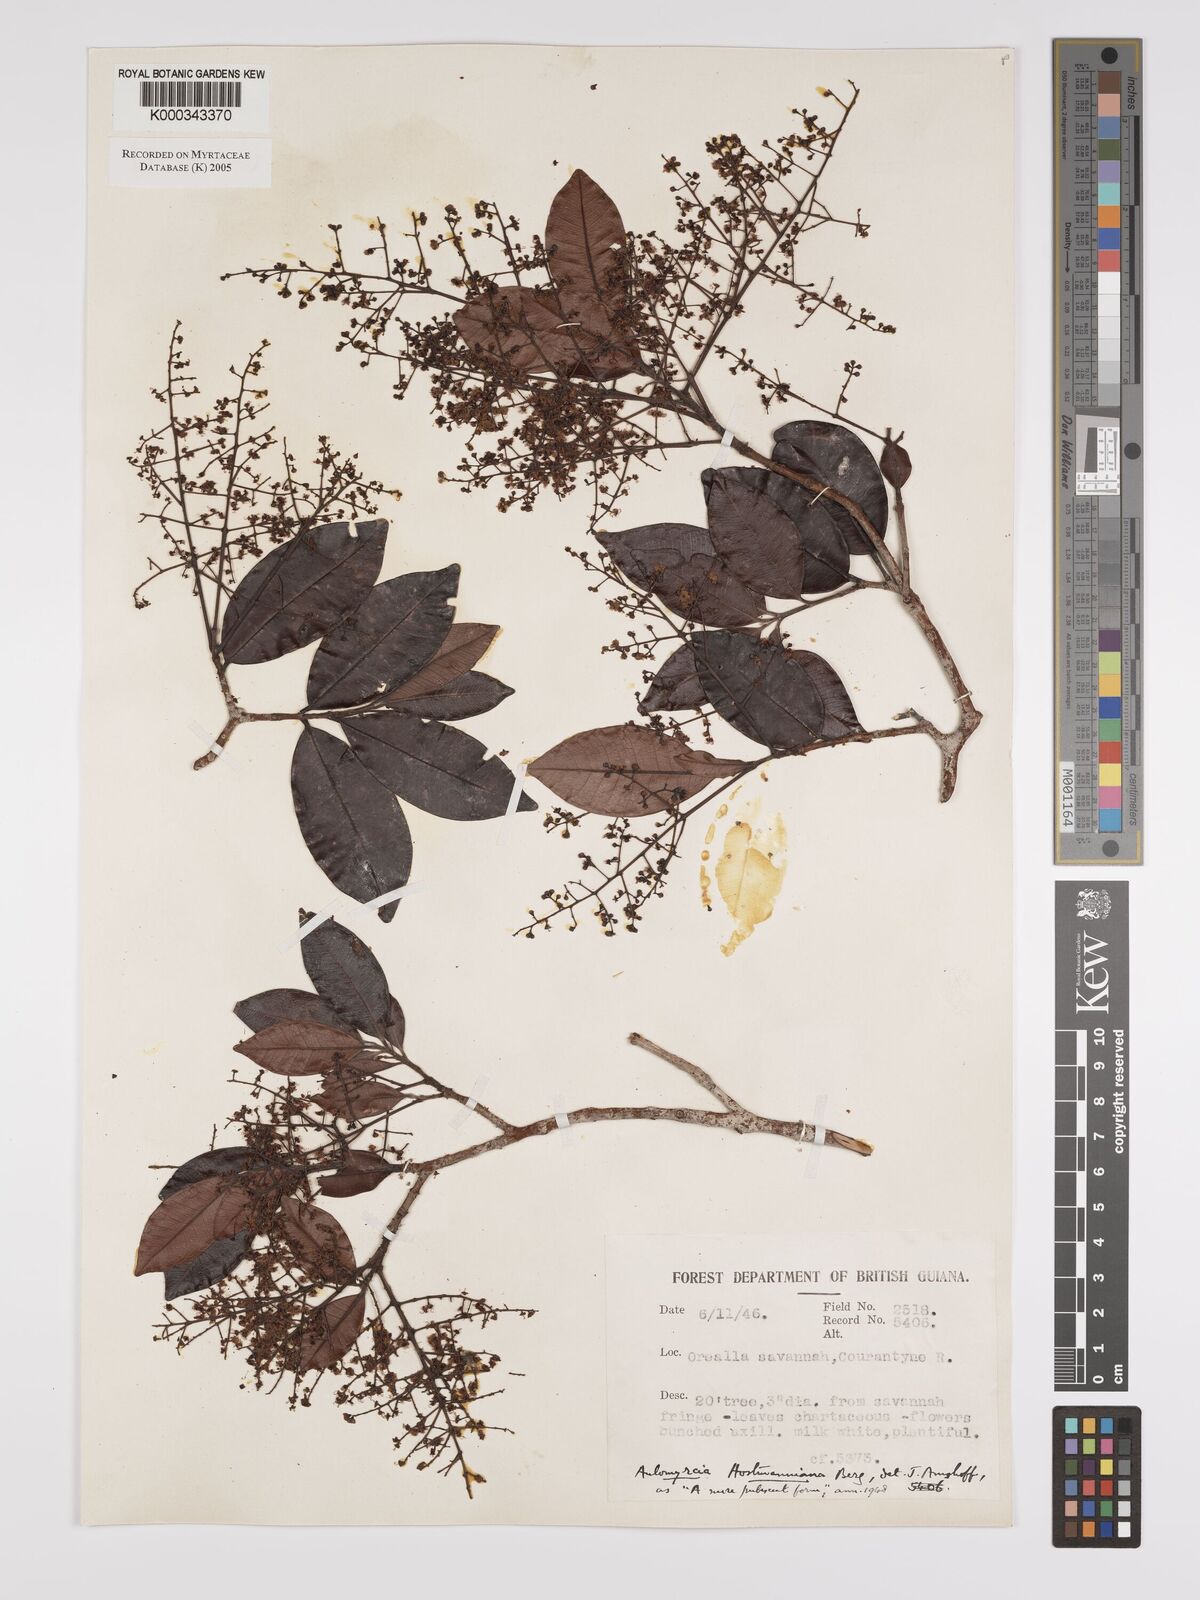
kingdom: Plantae
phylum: Tracheophyta
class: Magnoliopsida
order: Myrtales
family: Myrtaceae
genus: Myrcia
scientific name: Myrcia amazonica
